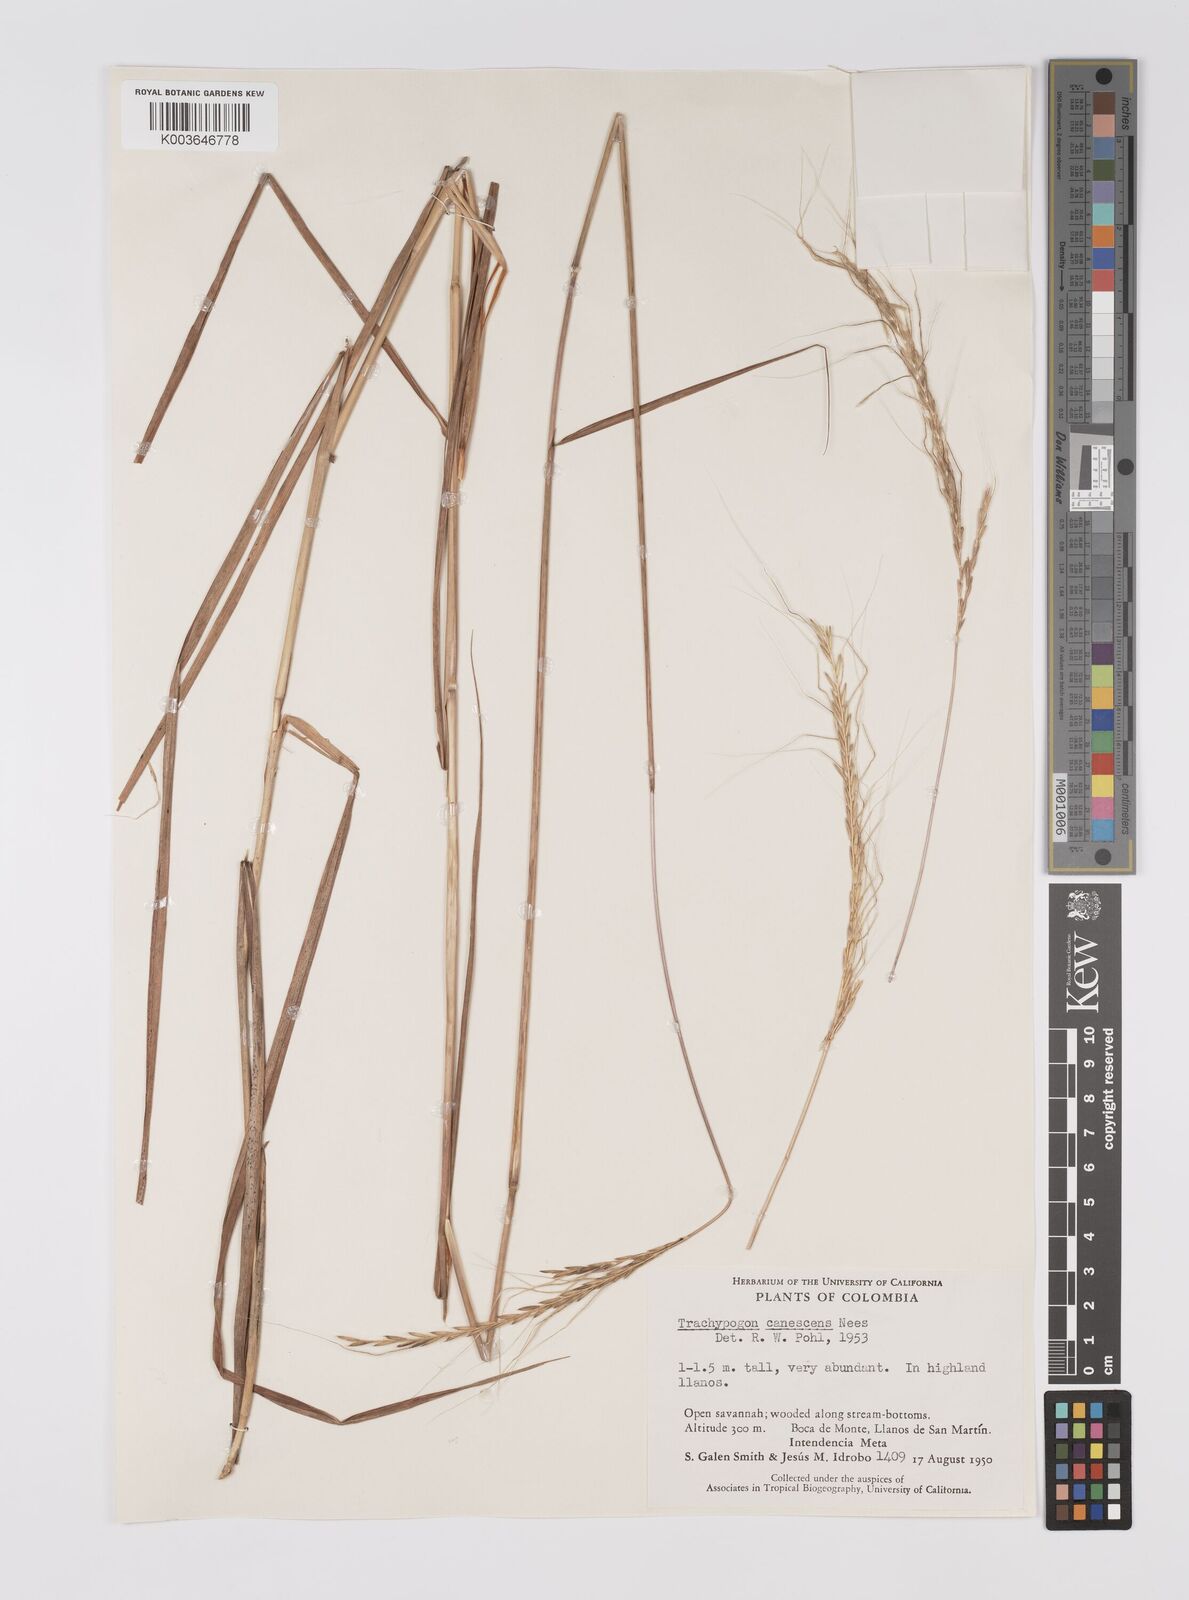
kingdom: Plantae
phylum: Tracheophyta
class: Liliopsida
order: Poales
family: Poaceae
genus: Trachypogon
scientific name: Trachypogon spicatus
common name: Crinkle-awn
